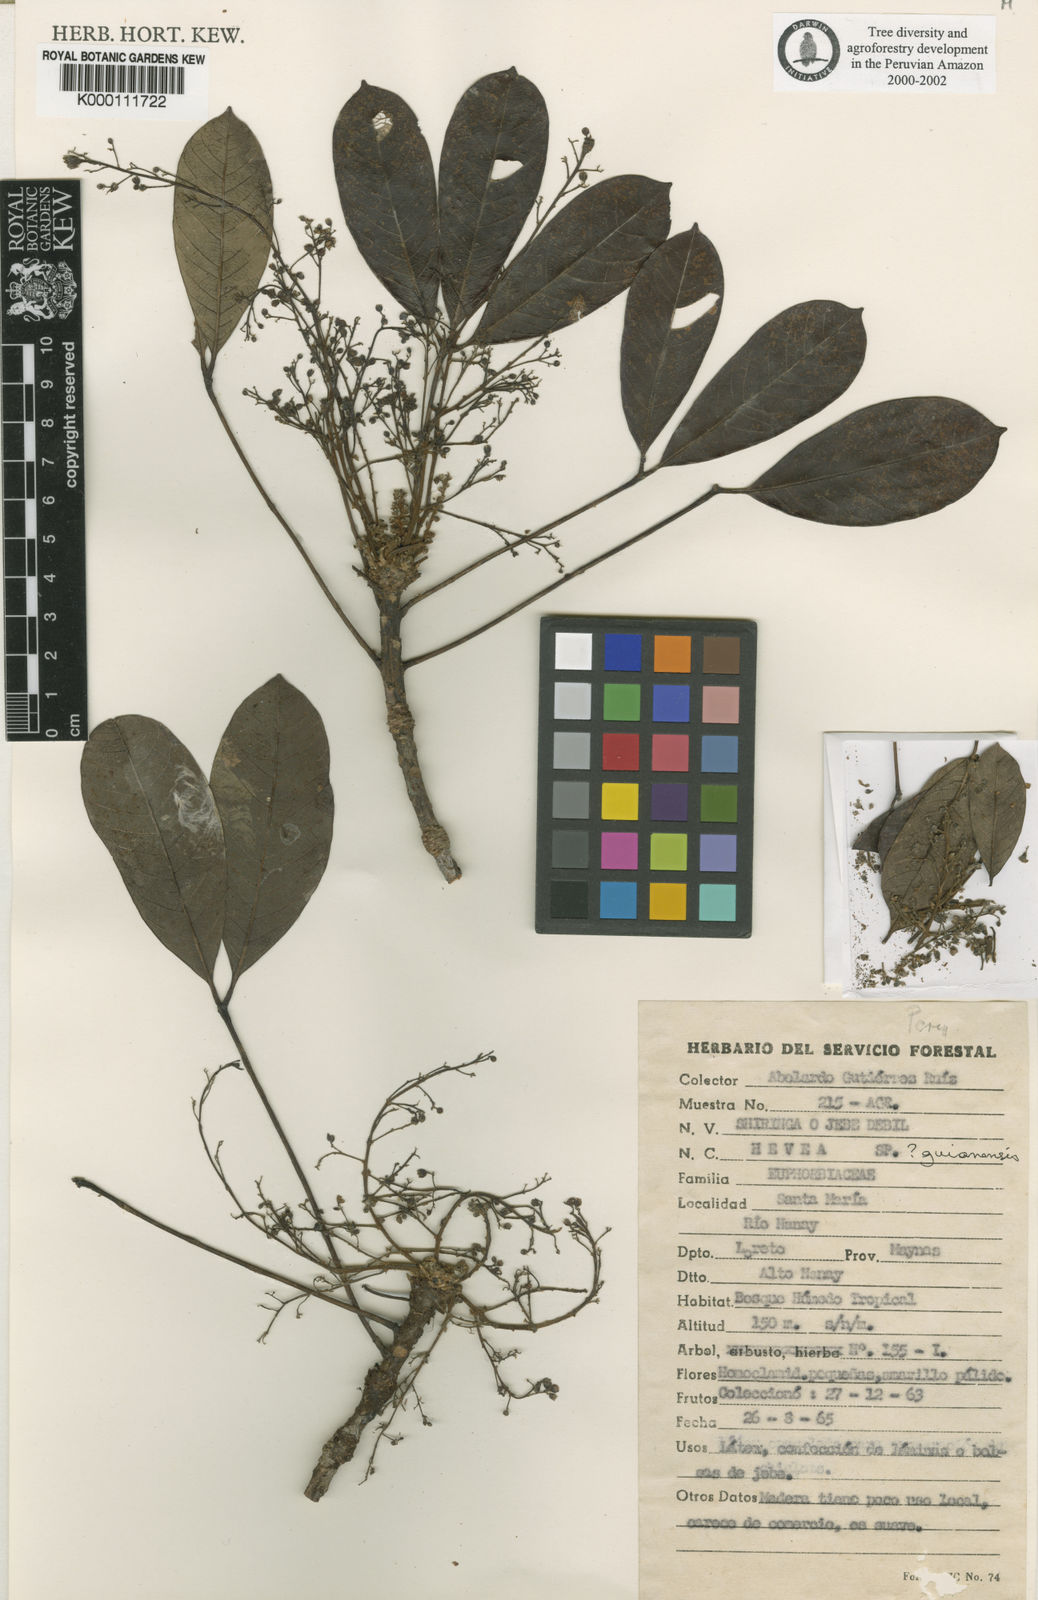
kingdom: Plantae
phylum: Tracheophyta
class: Magnoliopsida
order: Malpighiales
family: Euphorbiaceae
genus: Hevea
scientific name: Hevea guianensis
